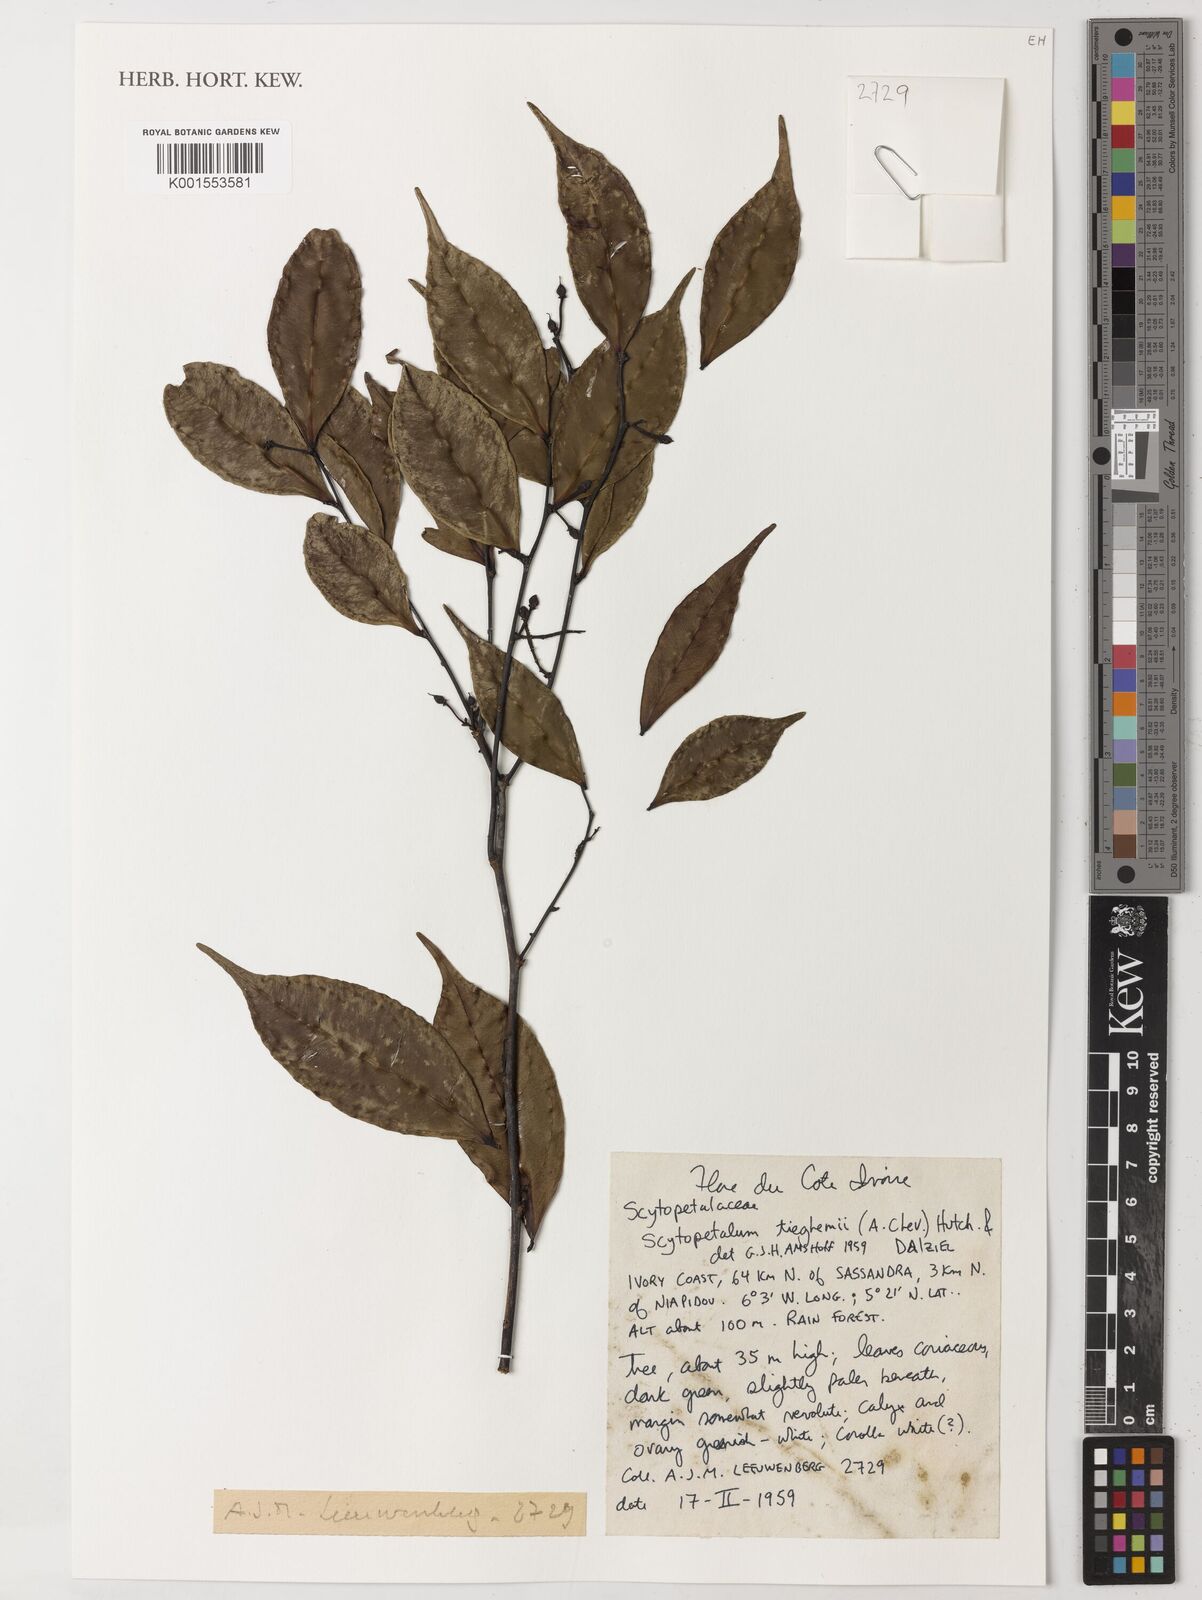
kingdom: Plantae
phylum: Tracheophyta
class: Magnoliopsida
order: Ericales
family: Lecythidaceae
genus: Scytopetalum
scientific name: Scytopetalum tieghemii
